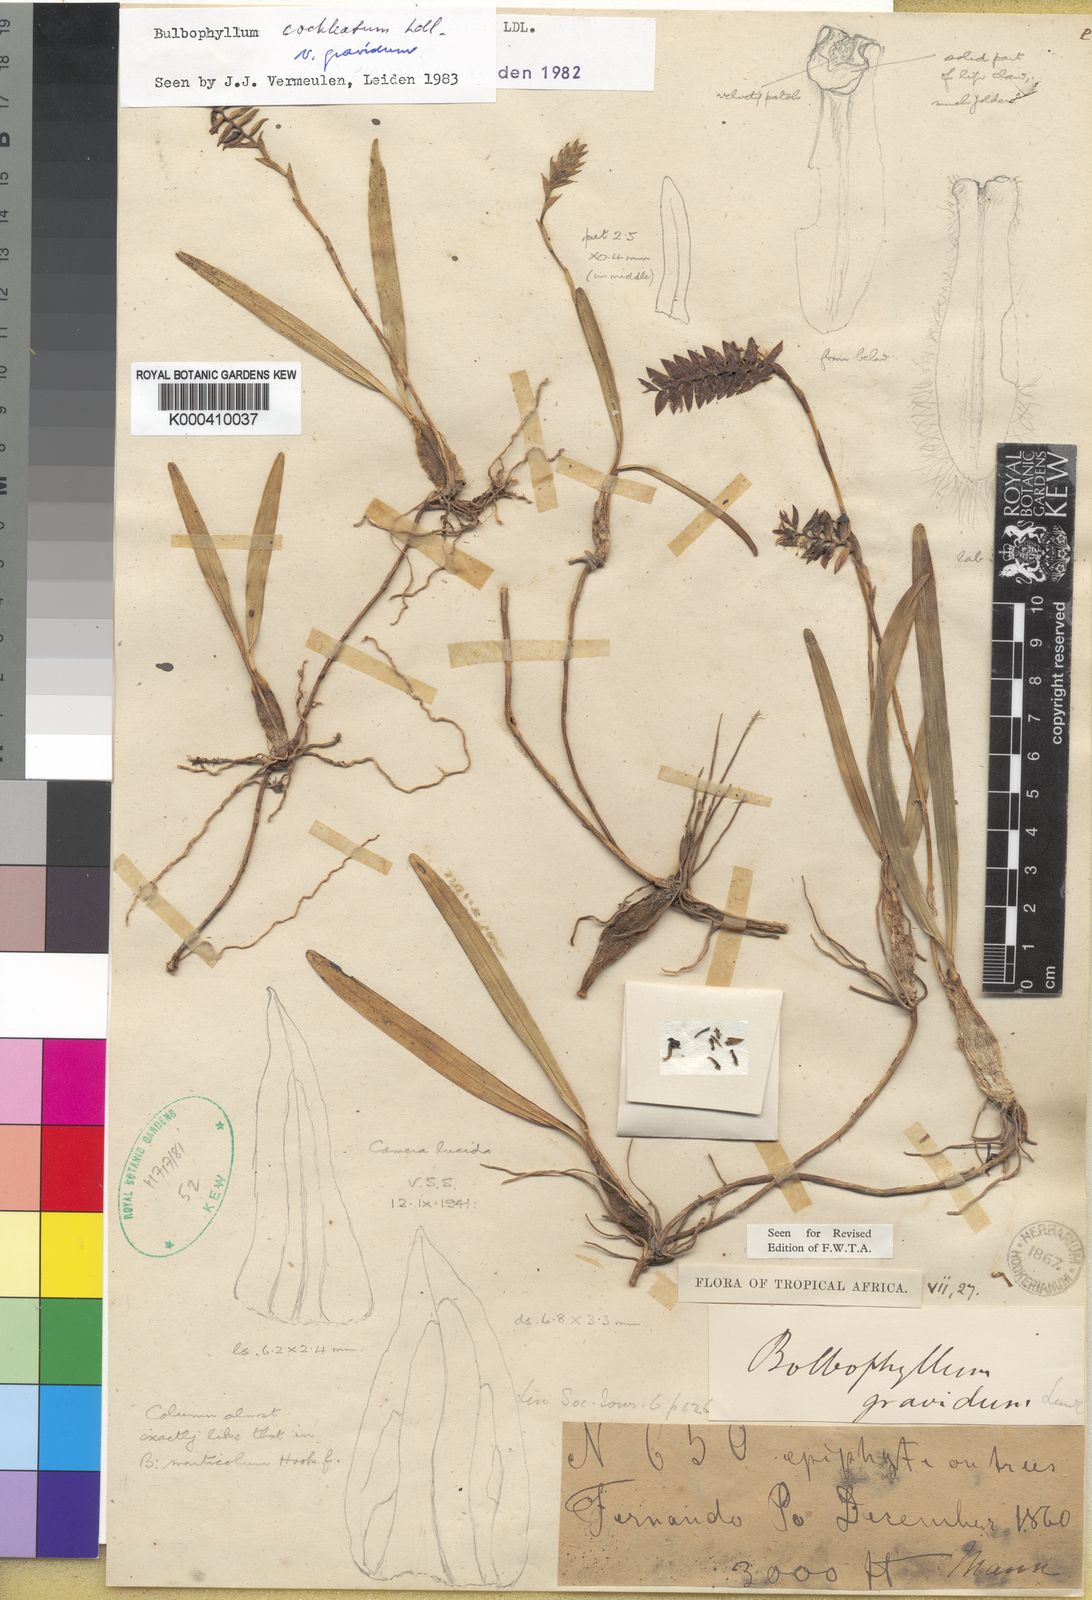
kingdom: Plantae
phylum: Tracheophyta
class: Liliopsida
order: Asparagales
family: Orchidaceae
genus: Bulbophyllum
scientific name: Bulbophyllum gravidum
